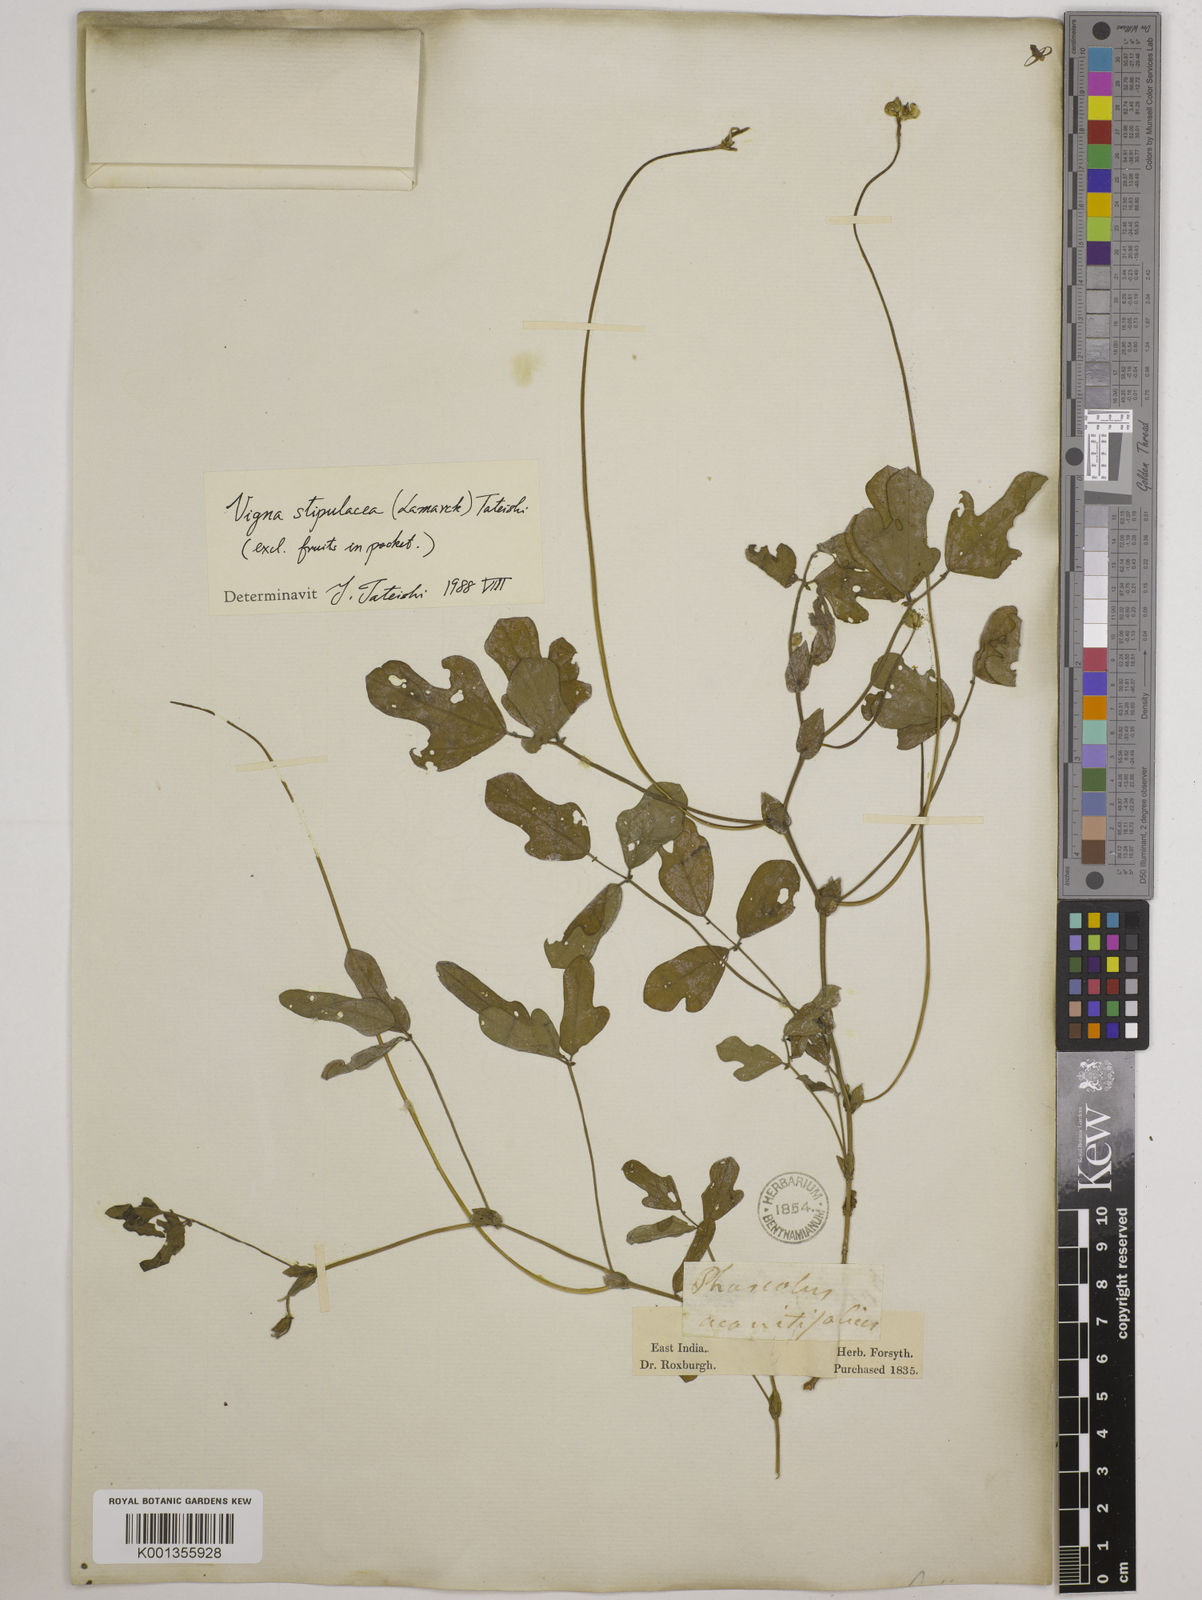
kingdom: Plantae
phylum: Tracheophyta
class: Magnoliopsida
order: Fabales
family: Fabaceae
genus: Pueraria
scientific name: Pueraria montana
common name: Kudzu
